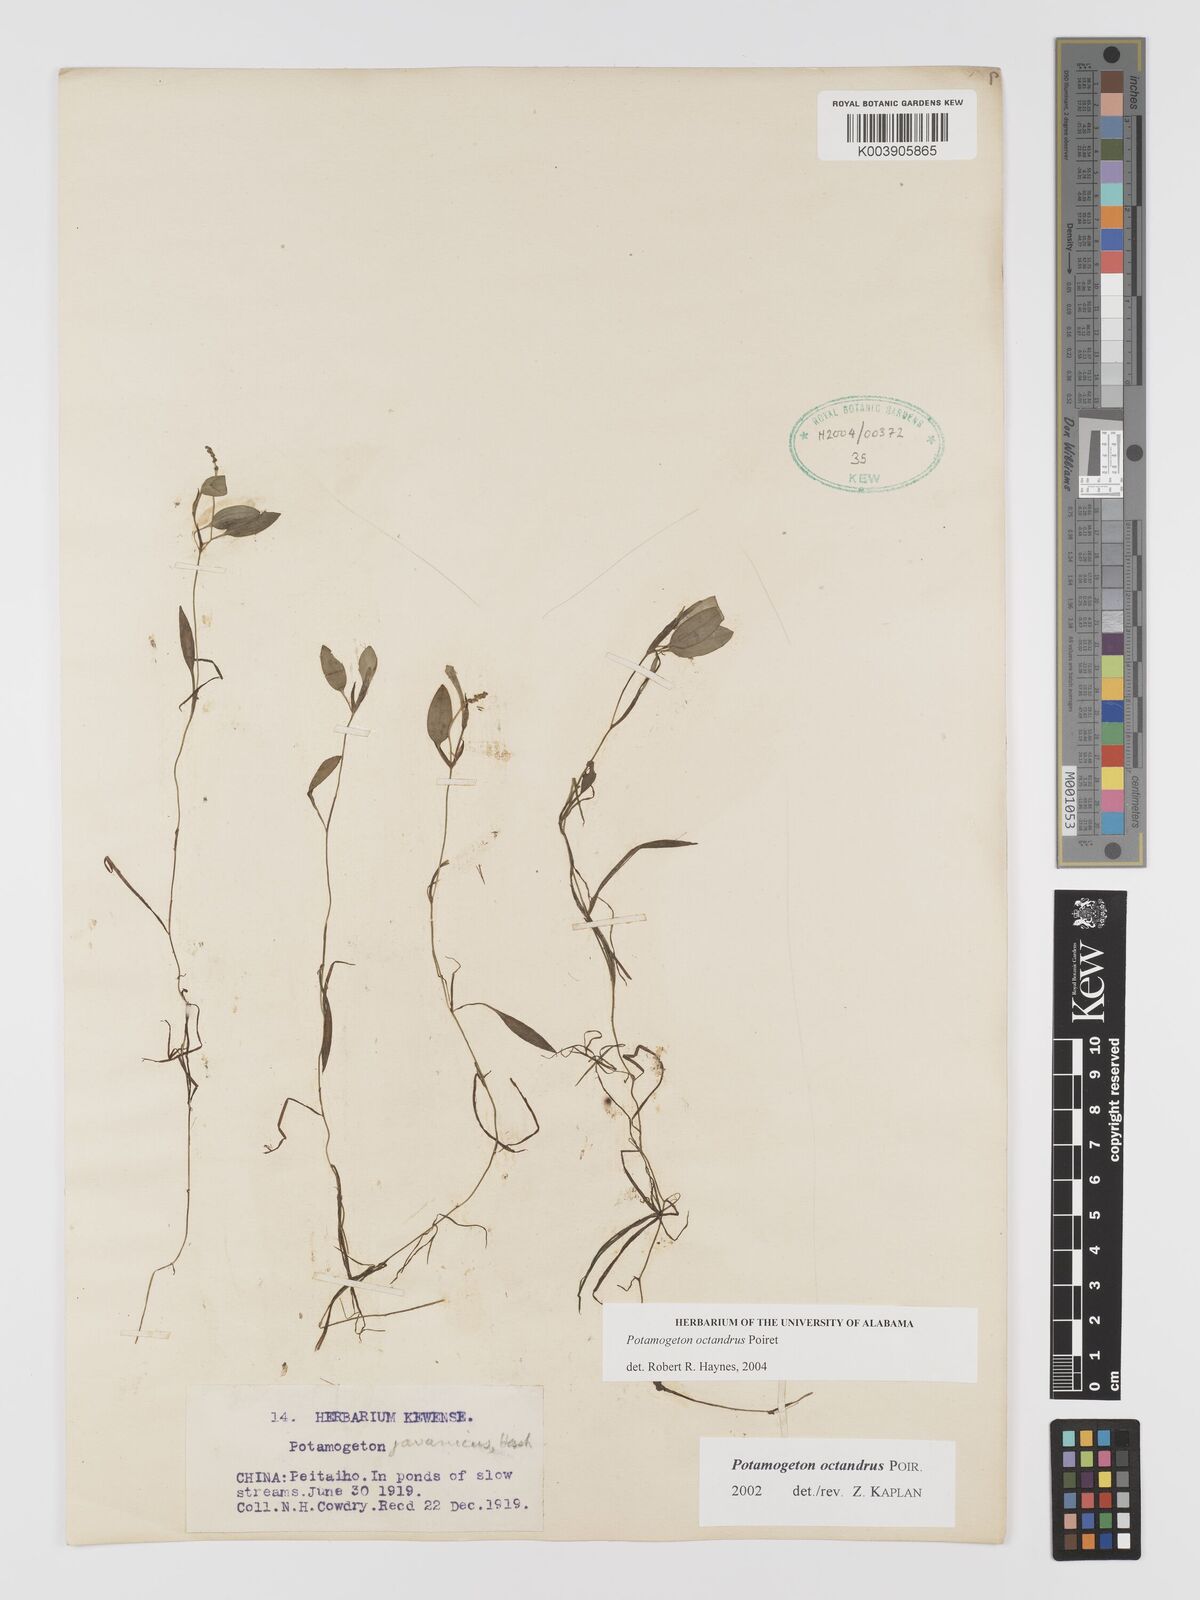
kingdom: Plantae
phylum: Tracheophyta
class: Liliopsida
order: Alismatales
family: Potamogetonaceae
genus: Potamogeton
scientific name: Potamogeton octandrus
